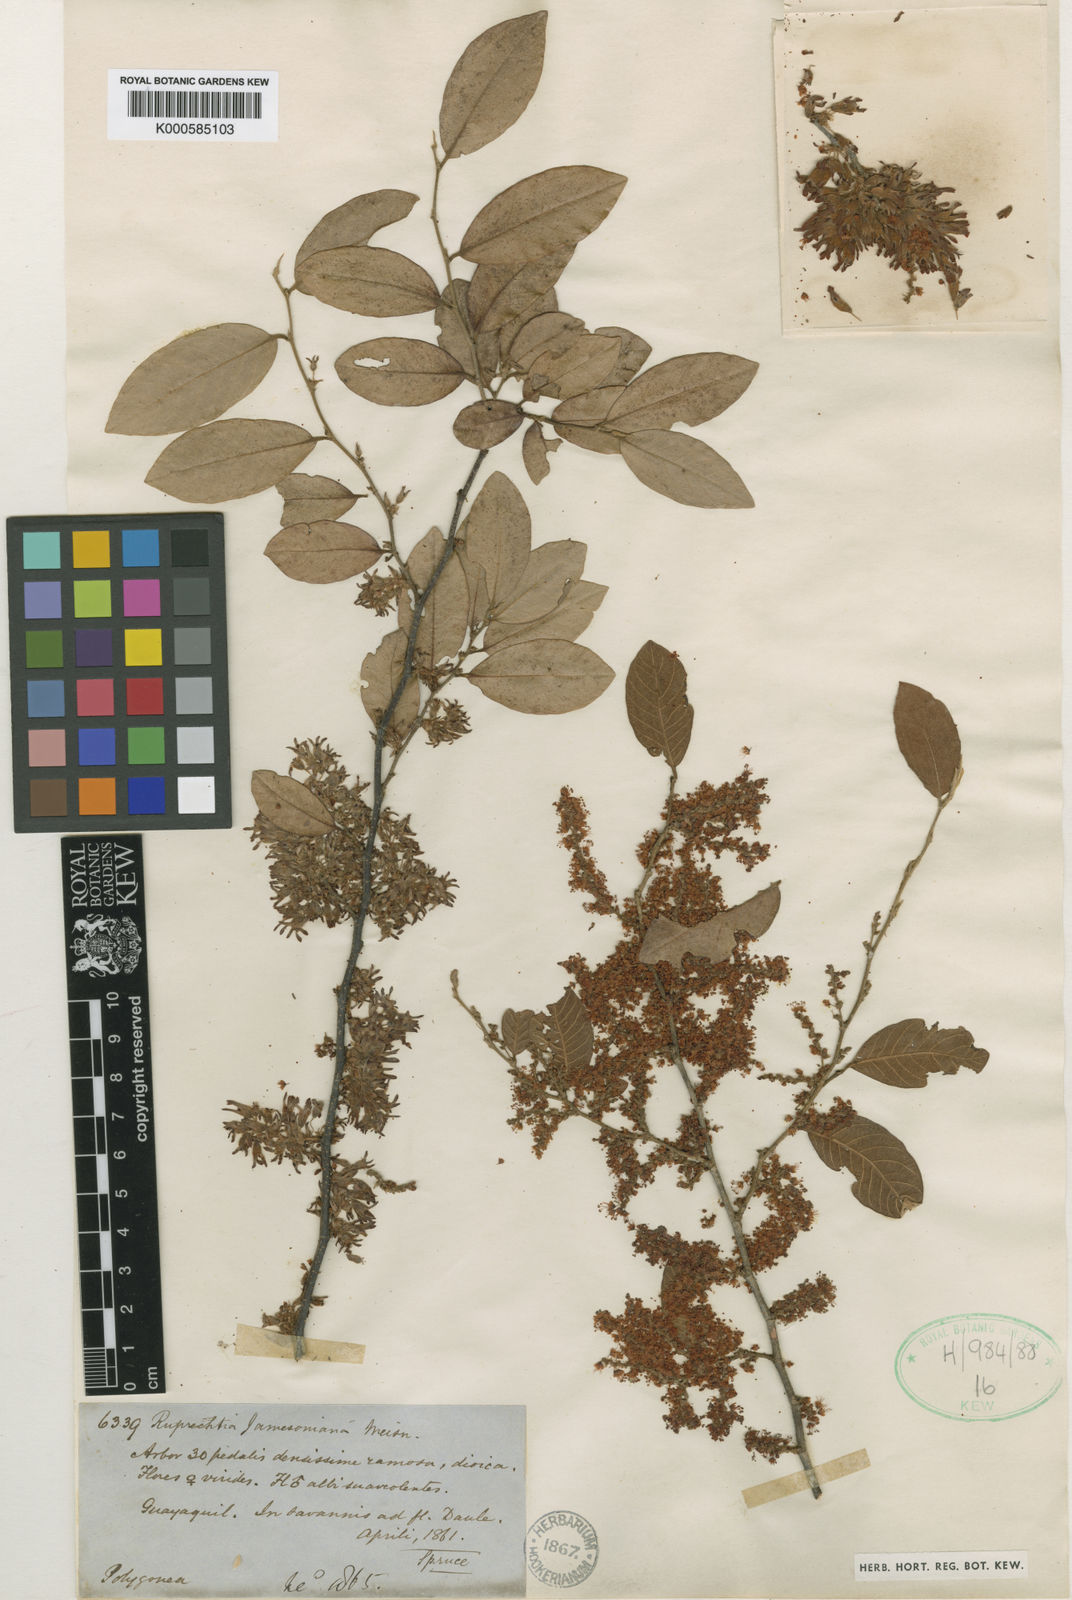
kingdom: Plantae
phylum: Tracheophyta
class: Magnoliopsida
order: Caryophyllales
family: Polygonaceae
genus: Ruprechtia
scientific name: Ruprechtia jamesonii
